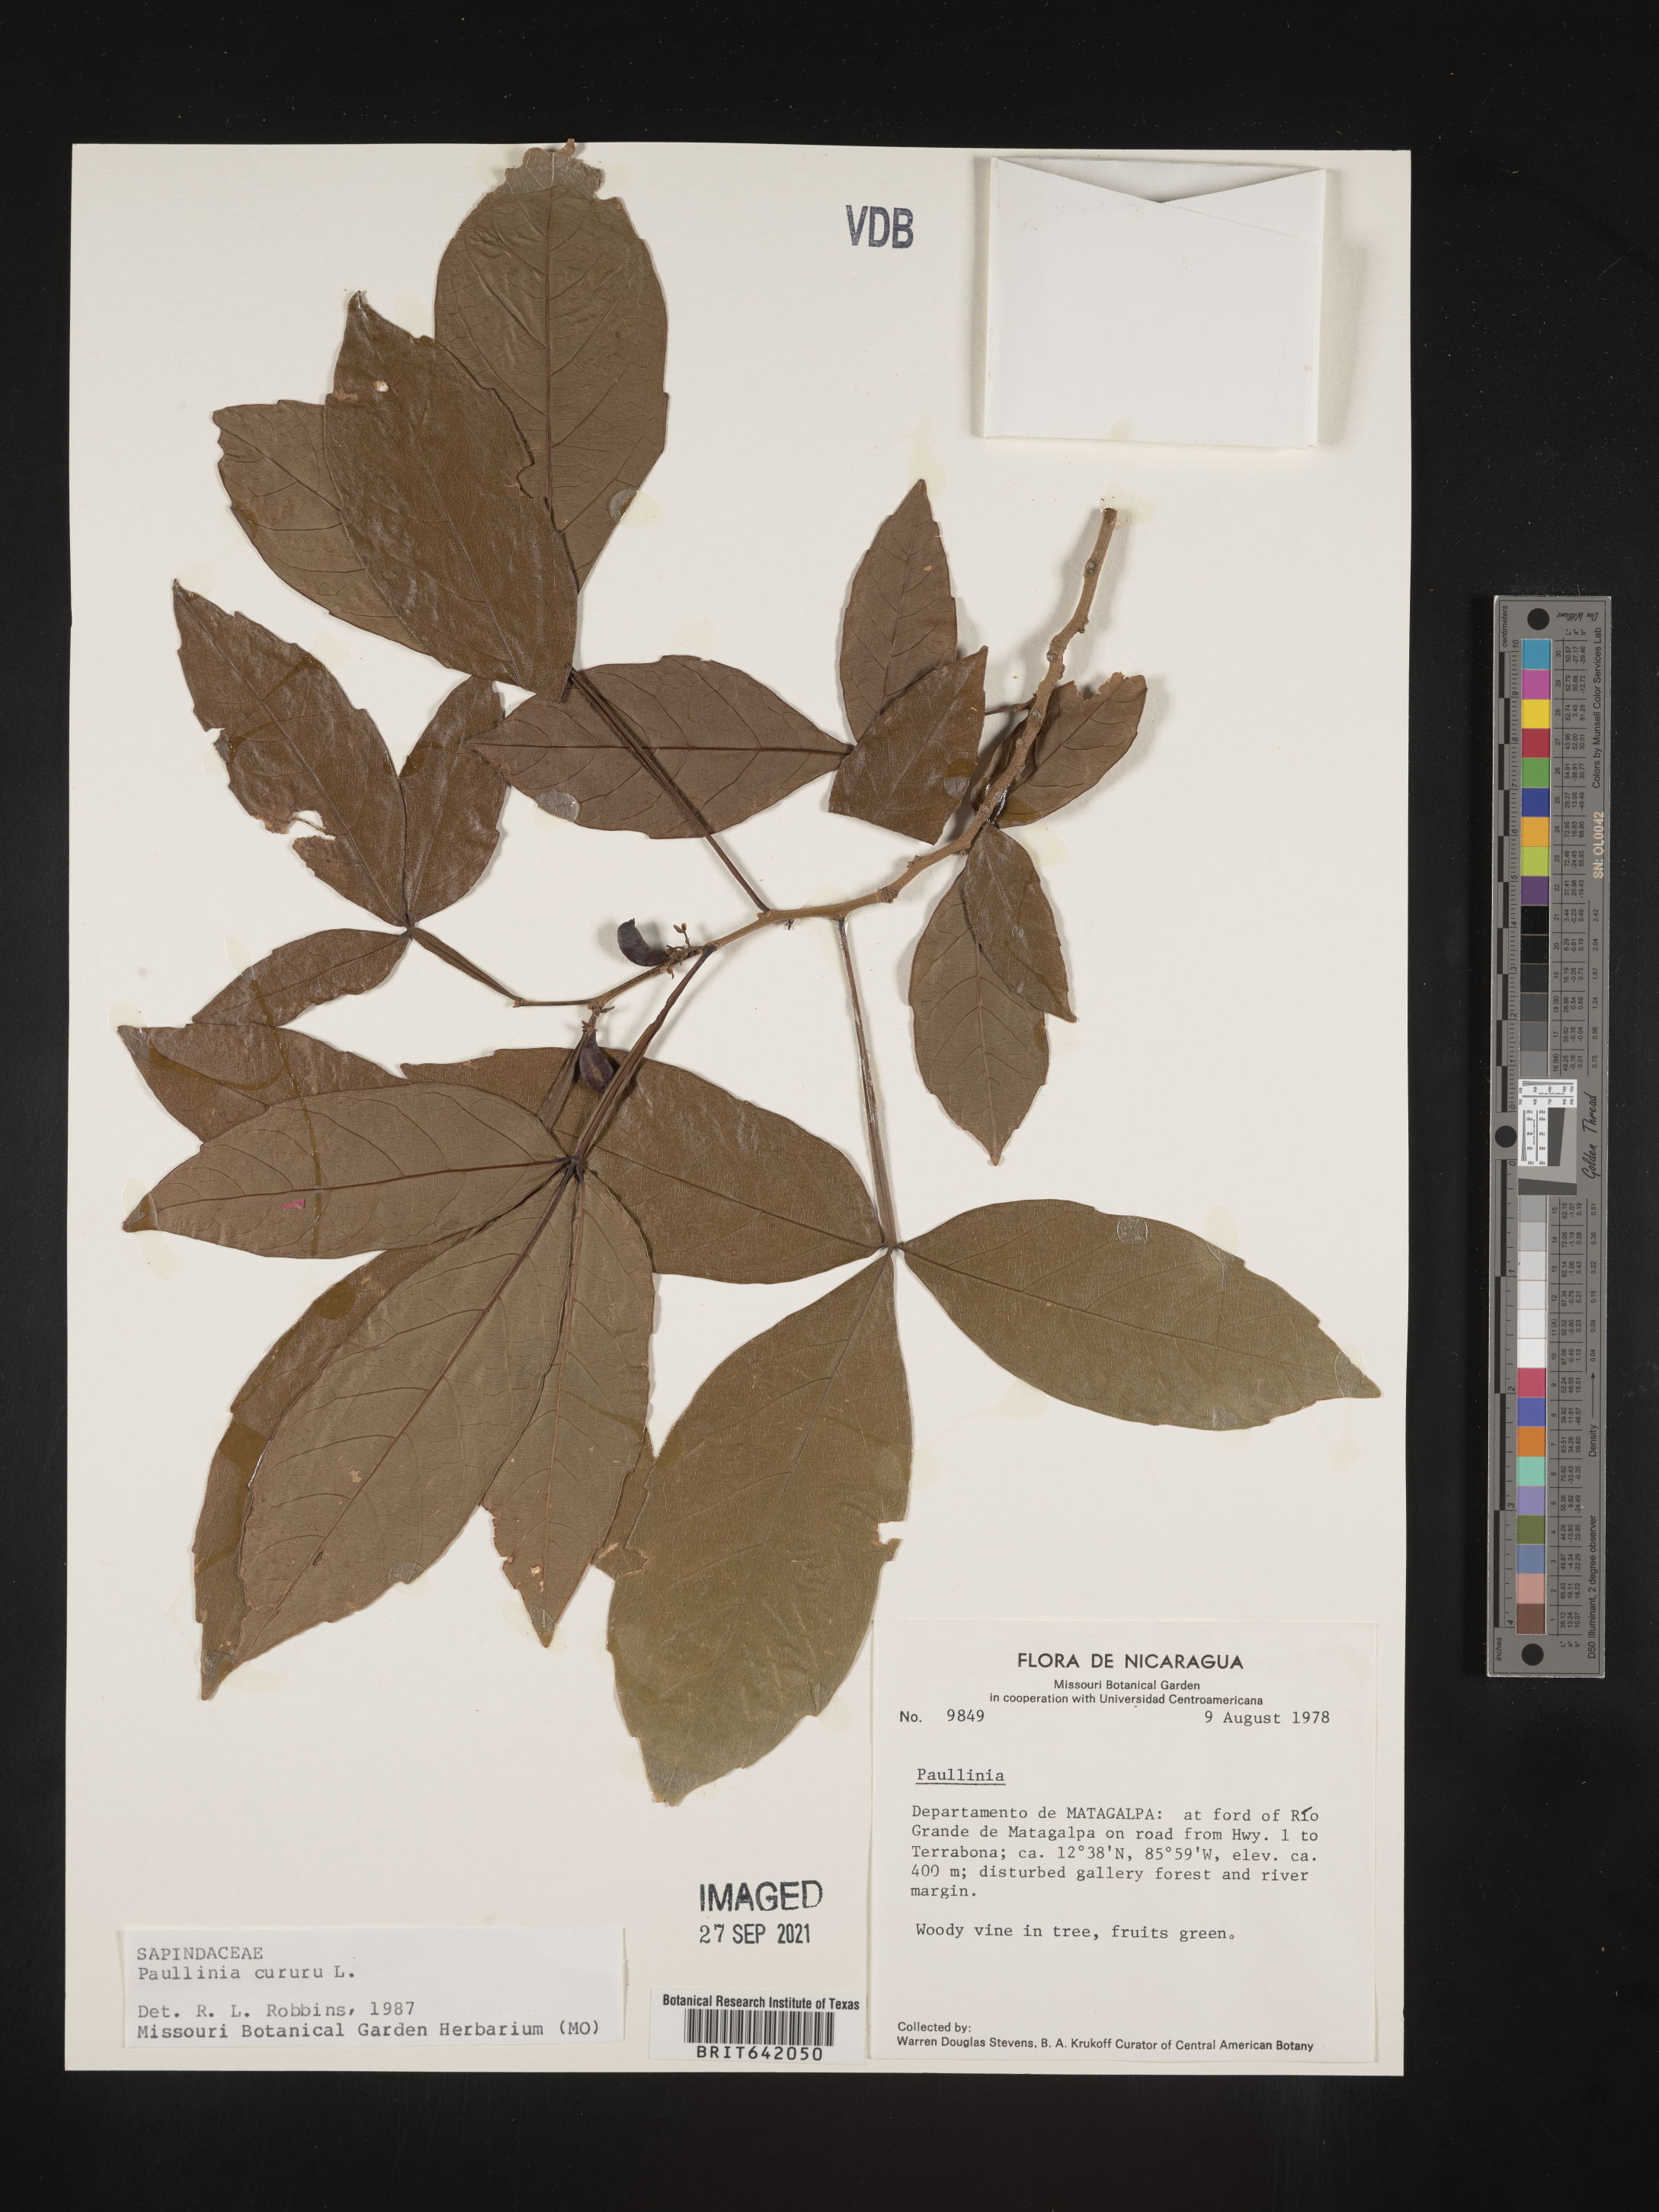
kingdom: Plantae
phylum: Tracheophyta
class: Magnoliopsida
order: Sapindales
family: Sapindaceae
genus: Paullinia
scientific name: Paullinia
